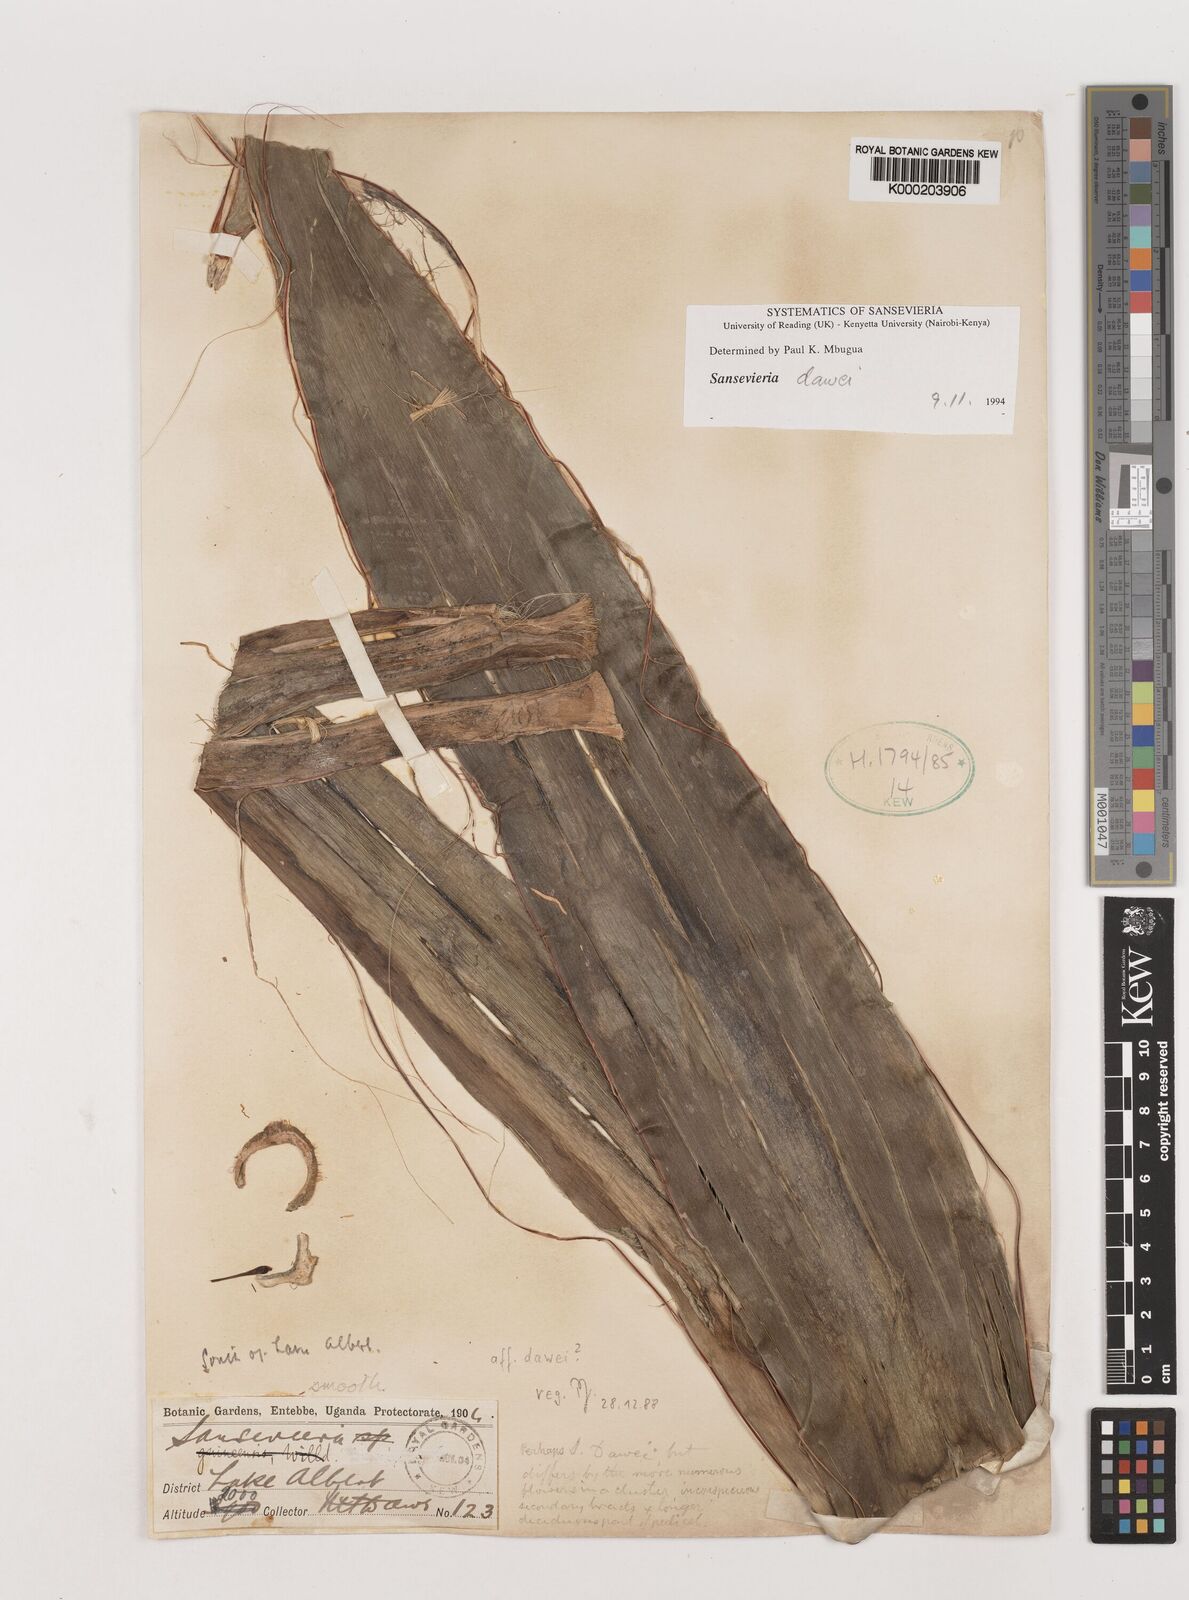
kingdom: Plantae
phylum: Tracheophyta
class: Liliopsida
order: Asparagales
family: Asparagaceae
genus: Dracaena
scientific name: Dracaena dawei
